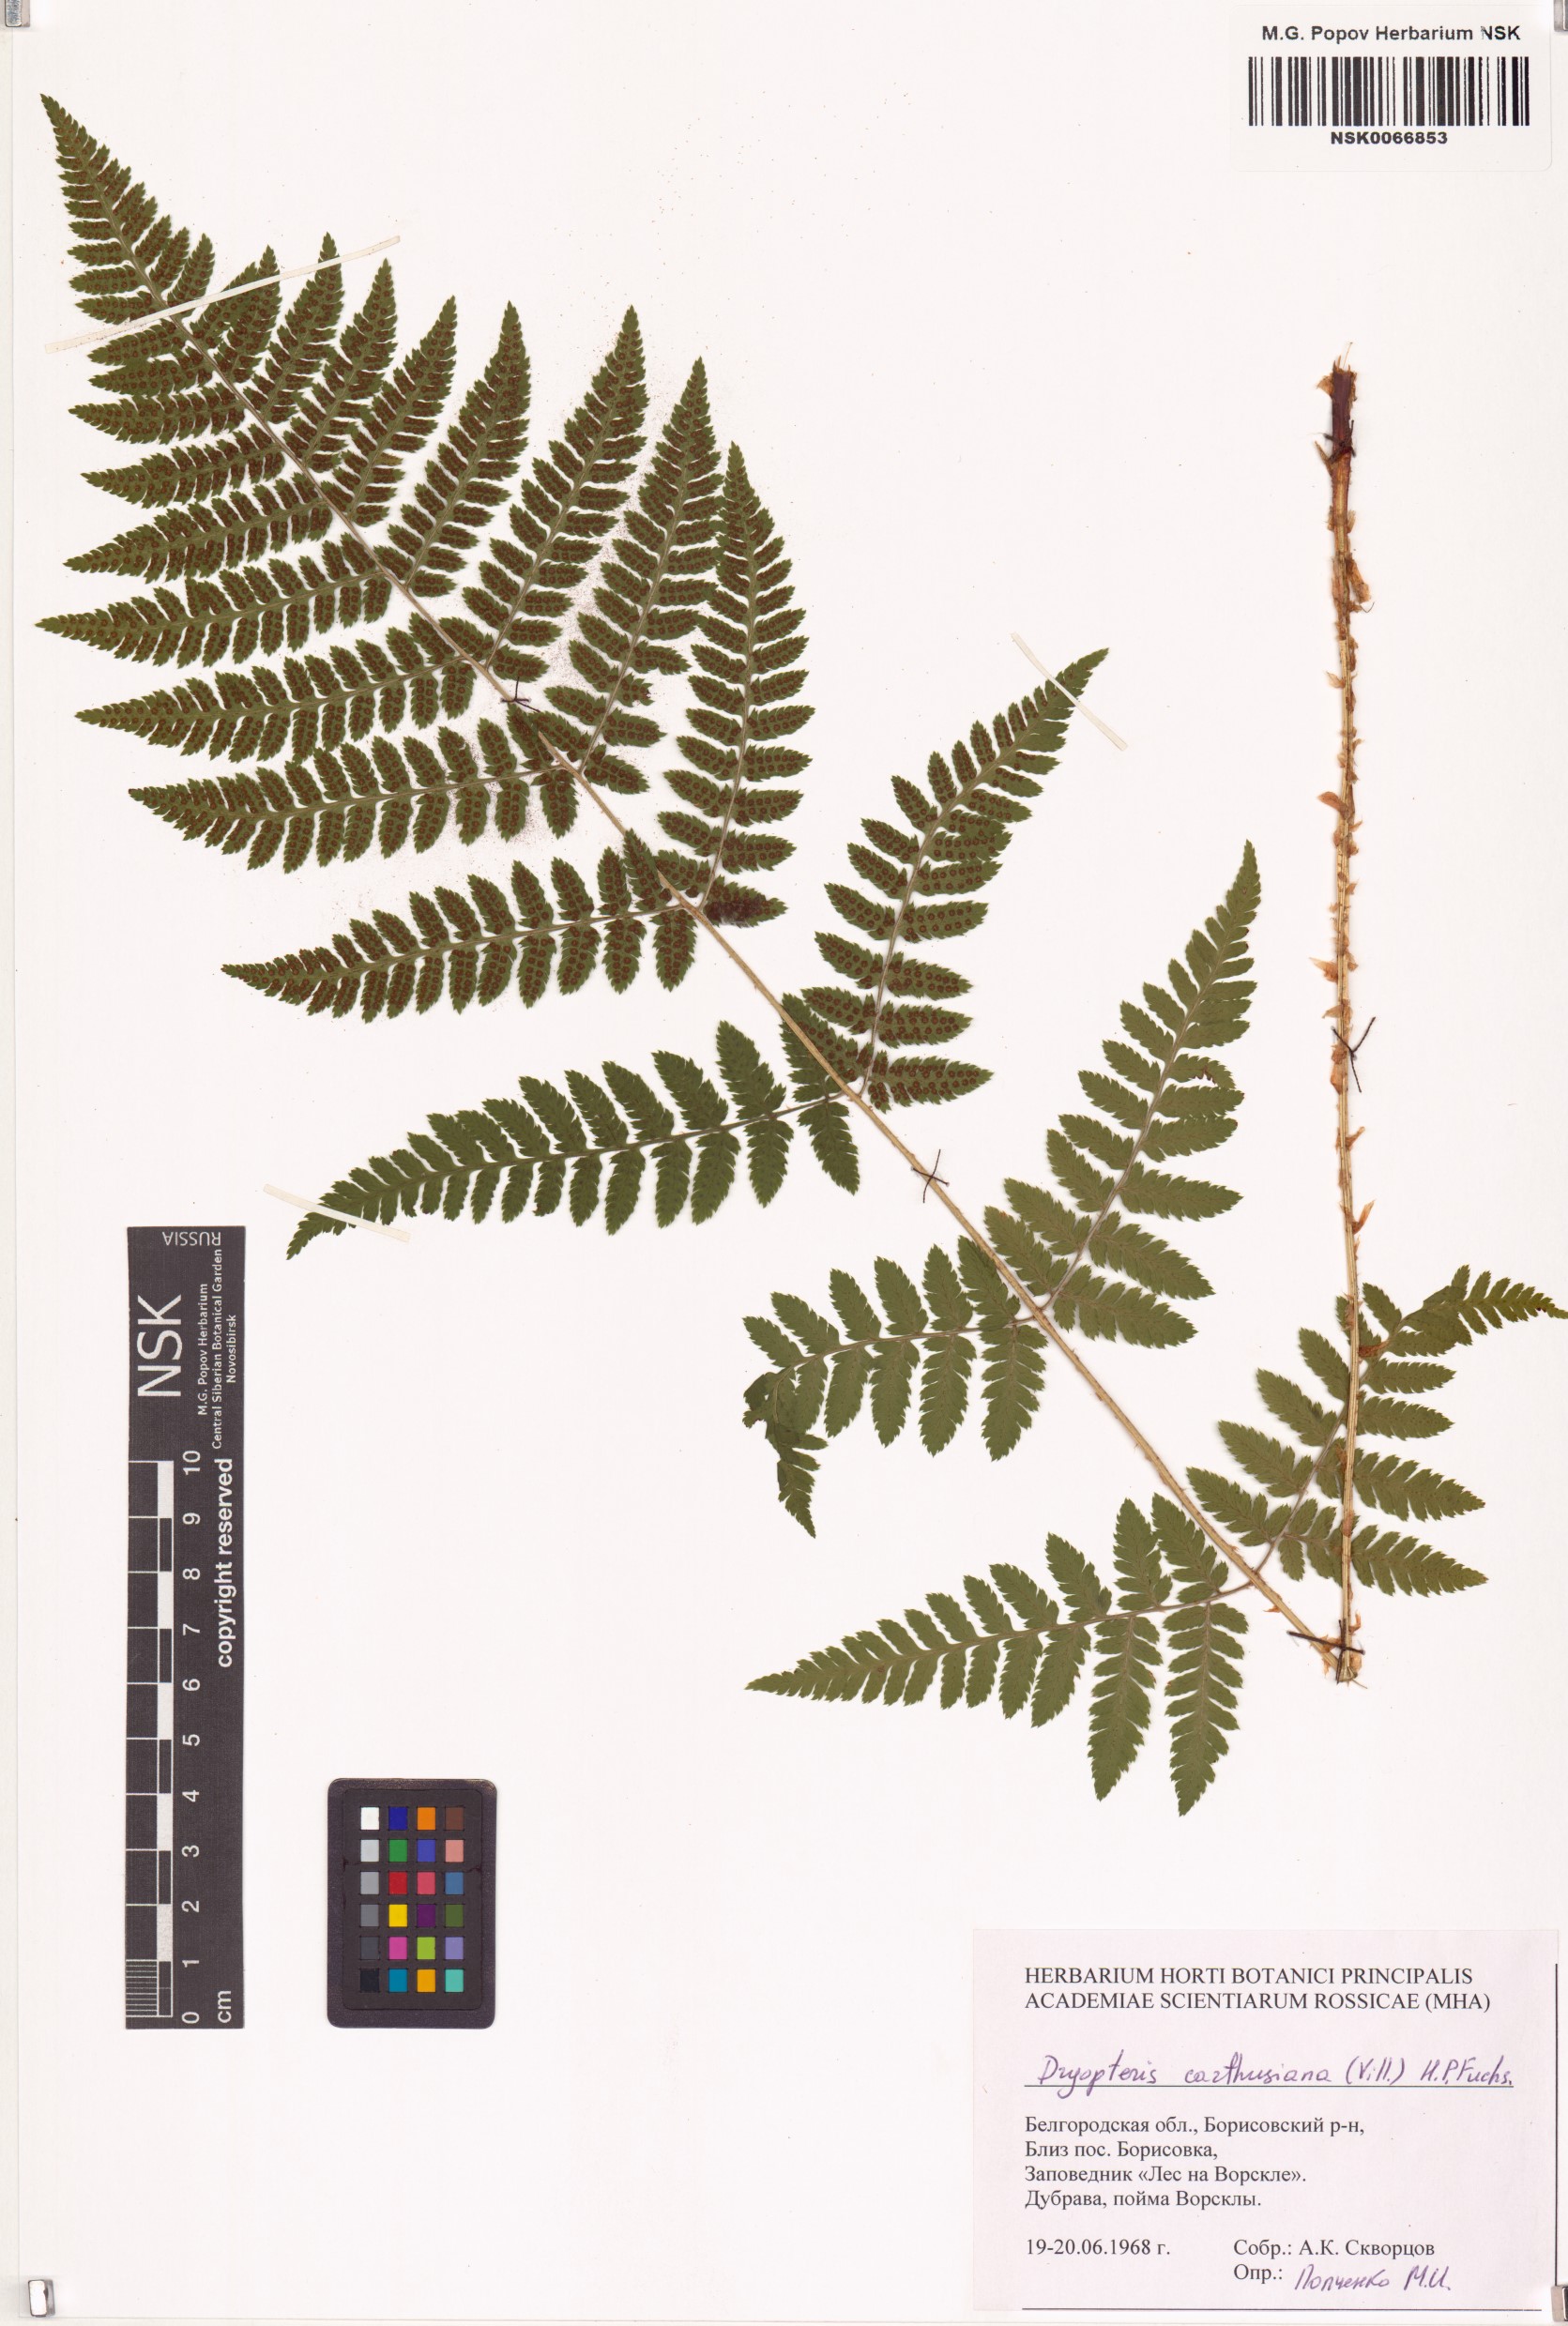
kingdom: Plantae
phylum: Tracheophyta
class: Polypodiopsida
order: Polypodiales
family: Dryopteridaceae
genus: Dryopteris
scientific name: Dryopteris carthusiana
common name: Narrow buckler-fern
